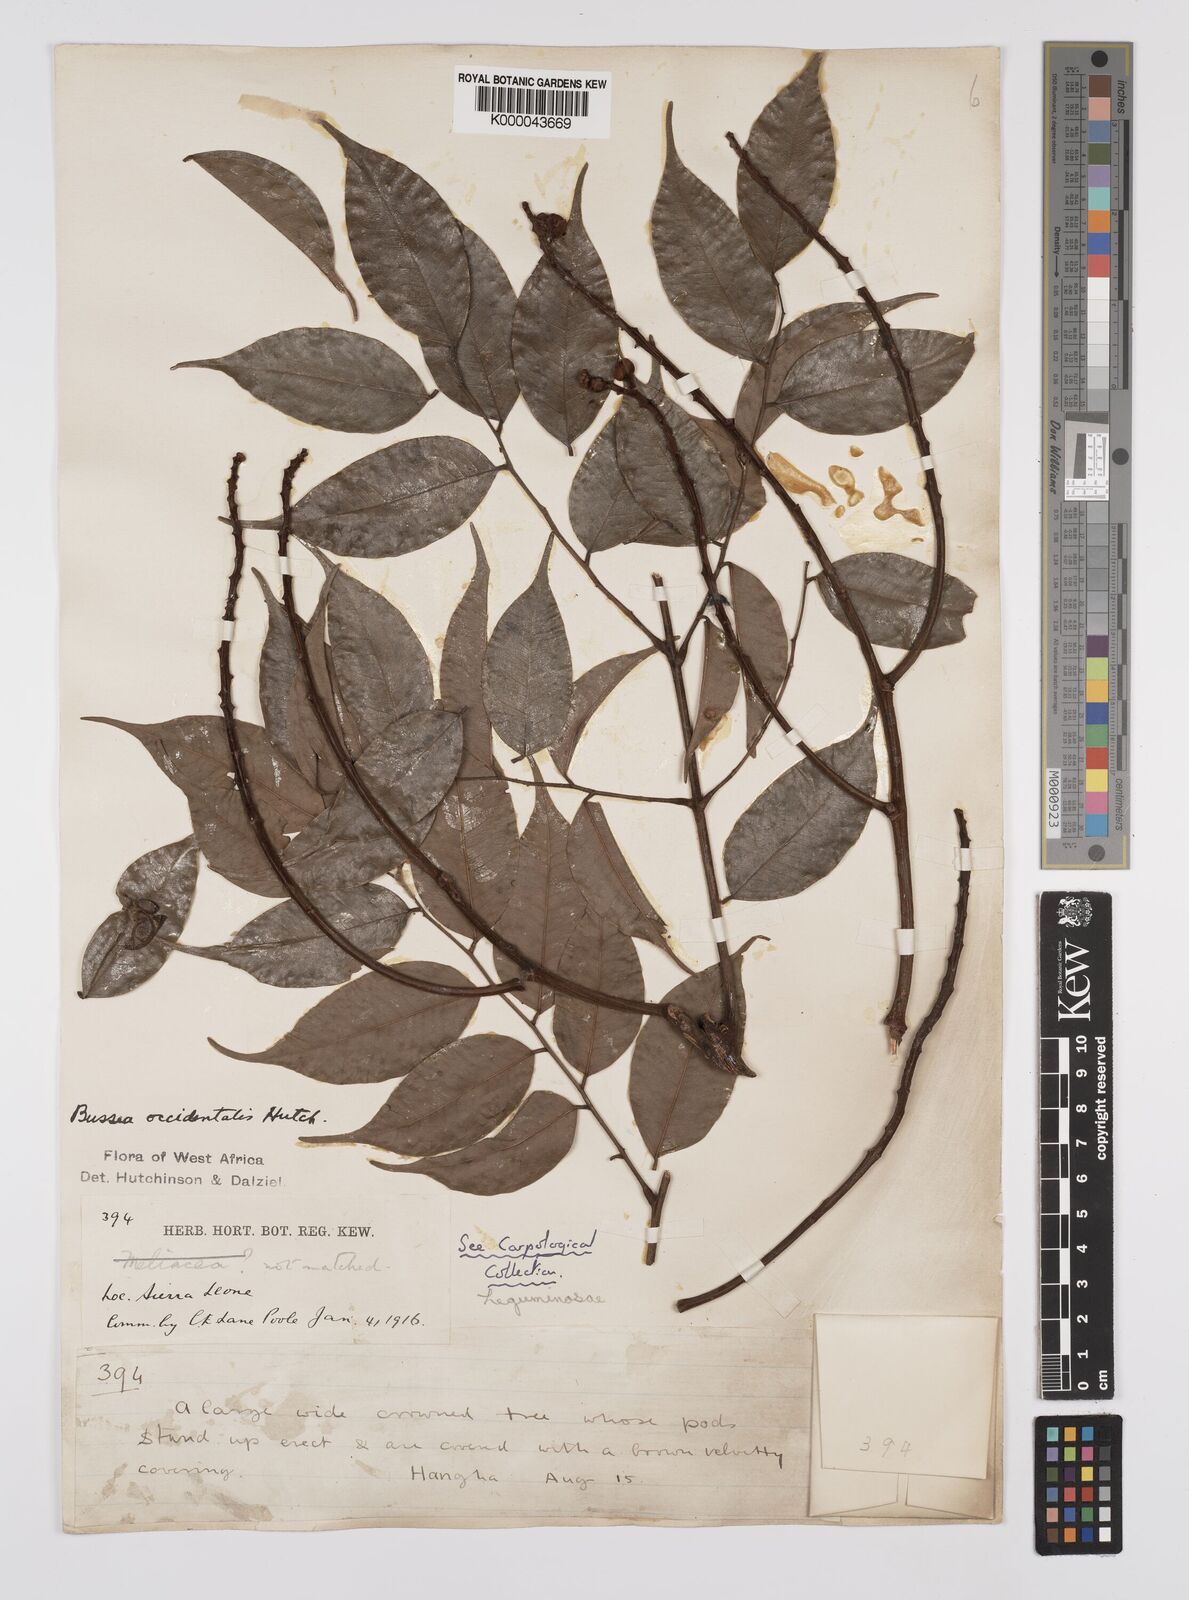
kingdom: Plantae
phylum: Tracheophyta
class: Magnoliopsida
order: Fabales
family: Fabaceae
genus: Bussea
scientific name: Bussea occidentalis
